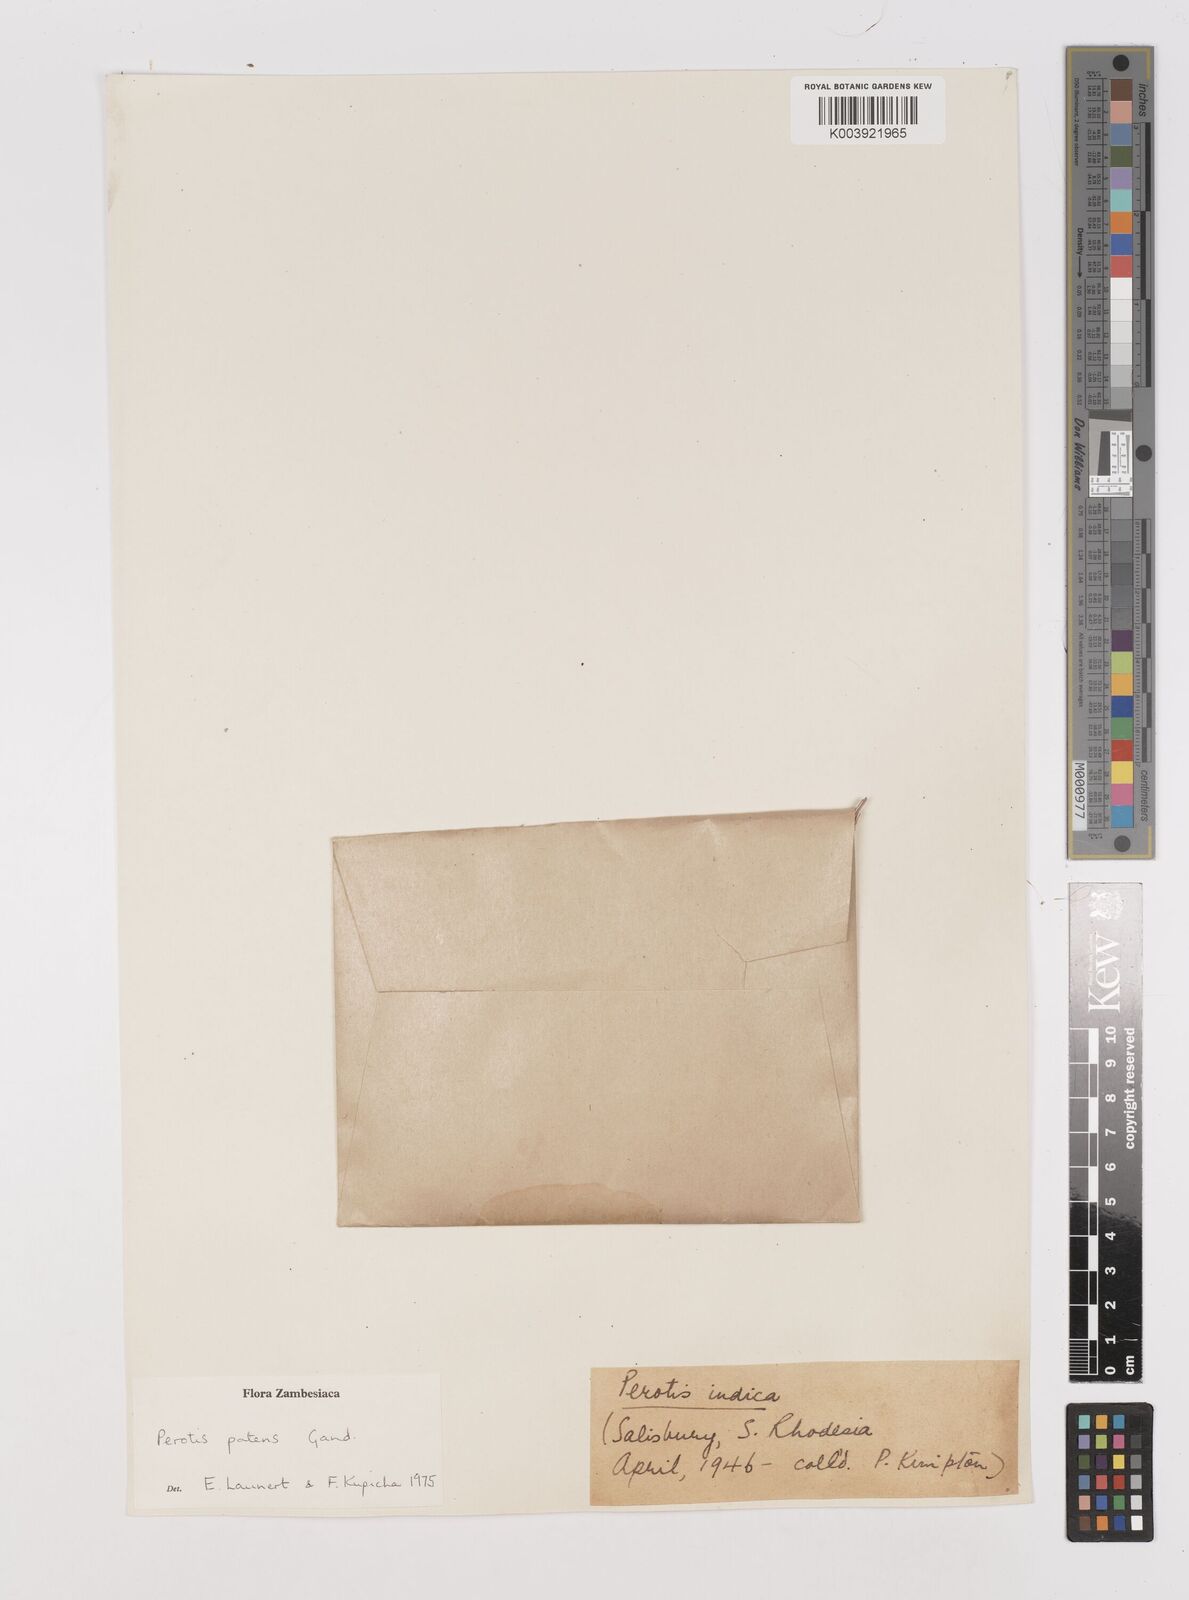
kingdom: Plantae
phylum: Tracheophyta
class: Liliopsida
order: Poales
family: Poaceae
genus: Perotis
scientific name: Perotis patens
